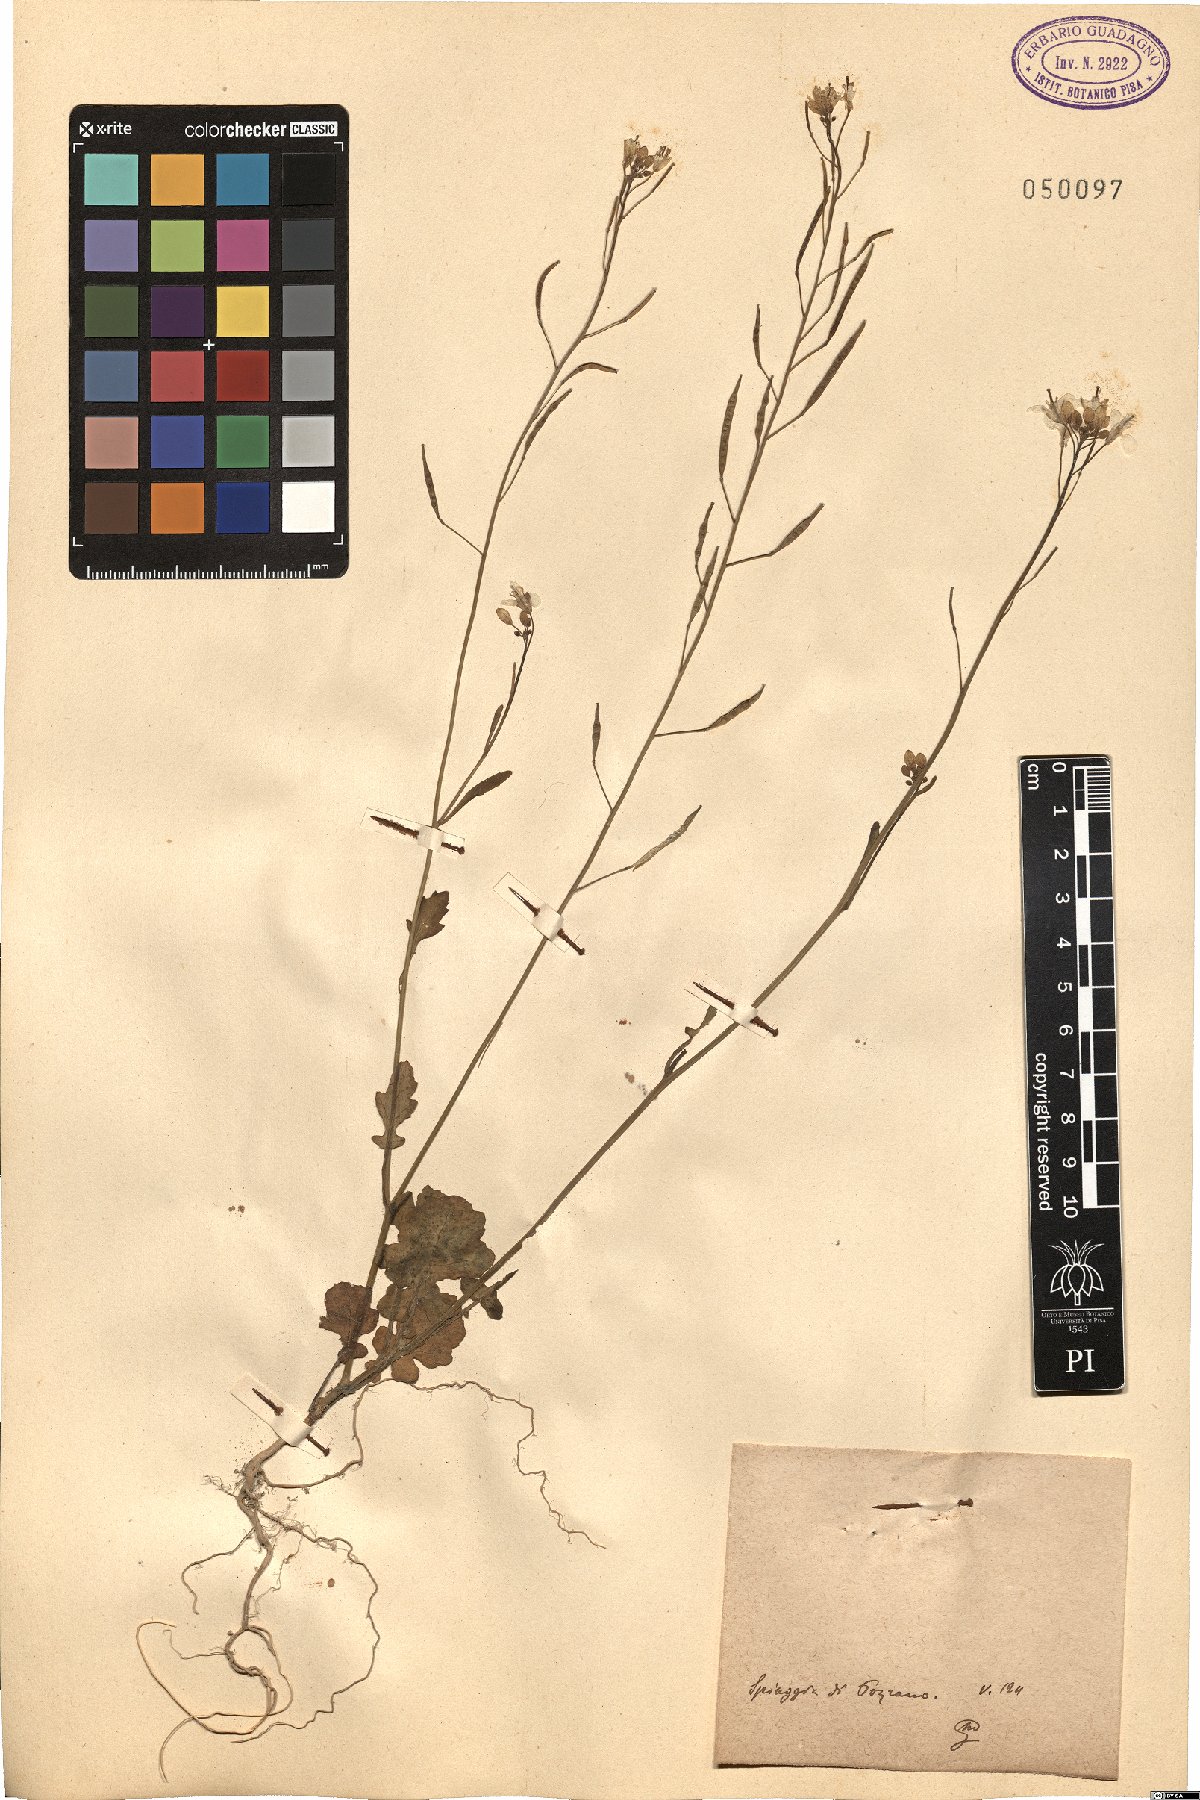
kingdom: Plantae
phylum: Tracheophyta
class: Magnoliopsida
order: Brassicales
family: Brassicaceae
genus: Brassica
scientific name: Brassica
